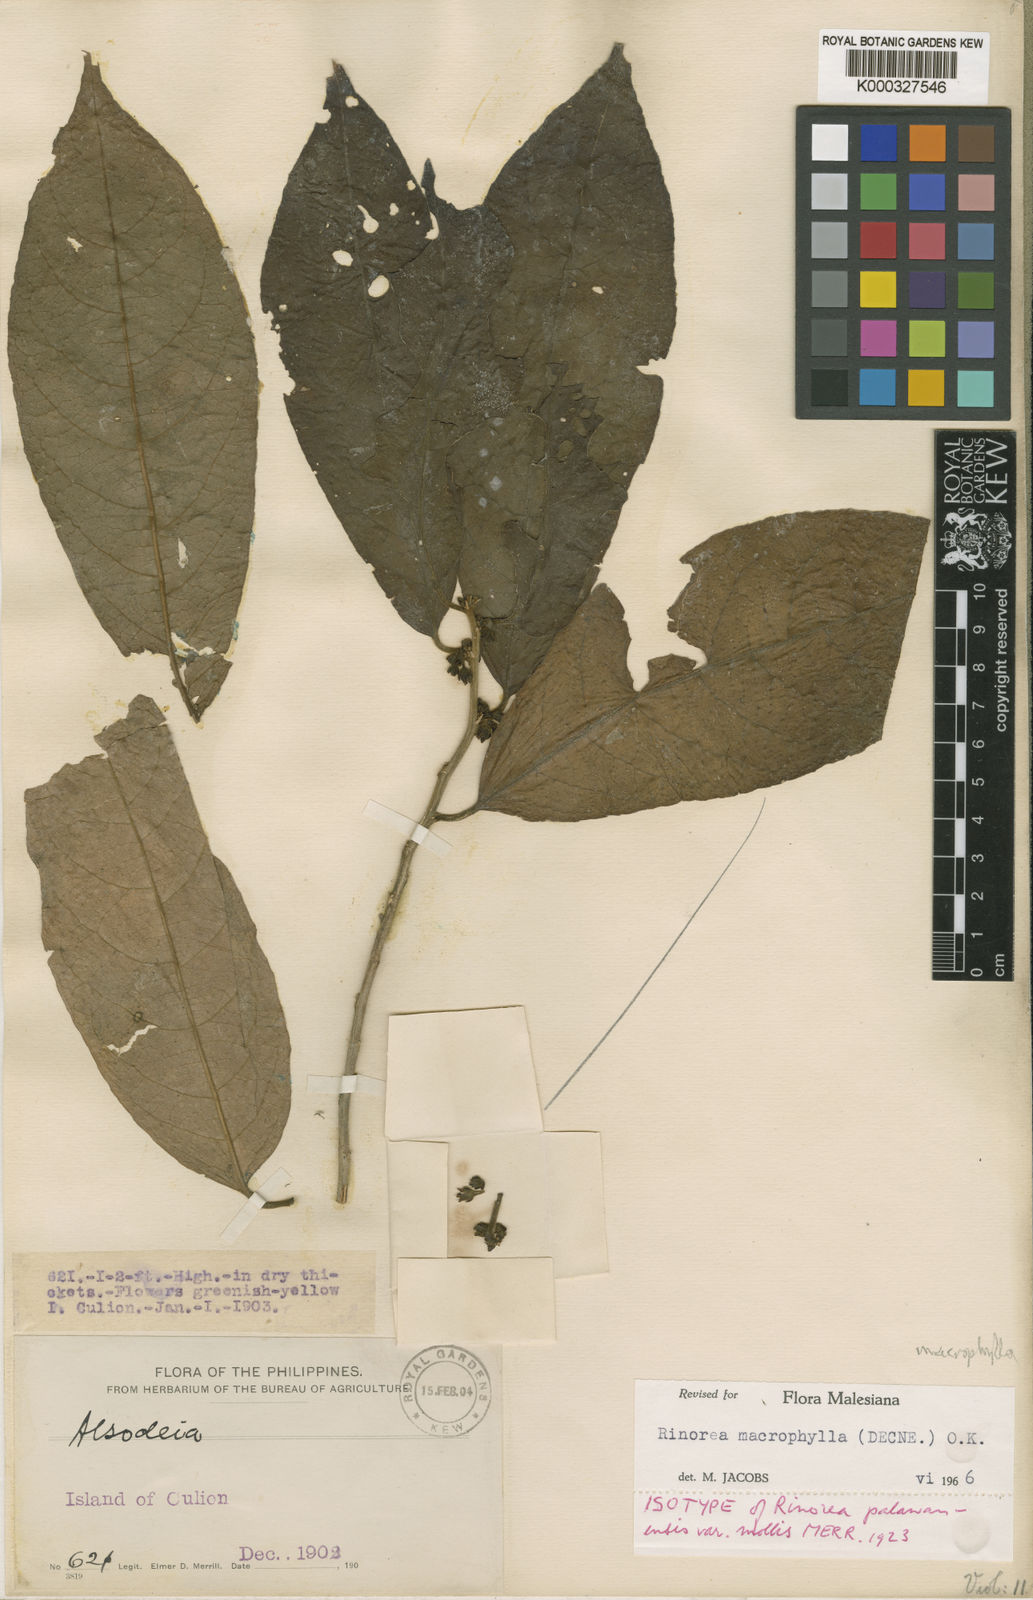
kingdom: Plantae
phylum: Tracheophyta
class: Magnoliopsida
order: Malpighiales
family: Violaceae
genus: Rinorea
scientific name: Rinorea macrophylla
